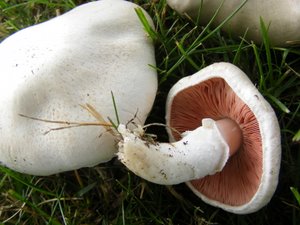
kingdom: Fungi
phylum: Basidiomycota
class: Agaricomycetes
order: Agaricales
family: Agaricaceae
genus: Agaricus
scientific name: Agaricus campestris
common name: mark-champignon
